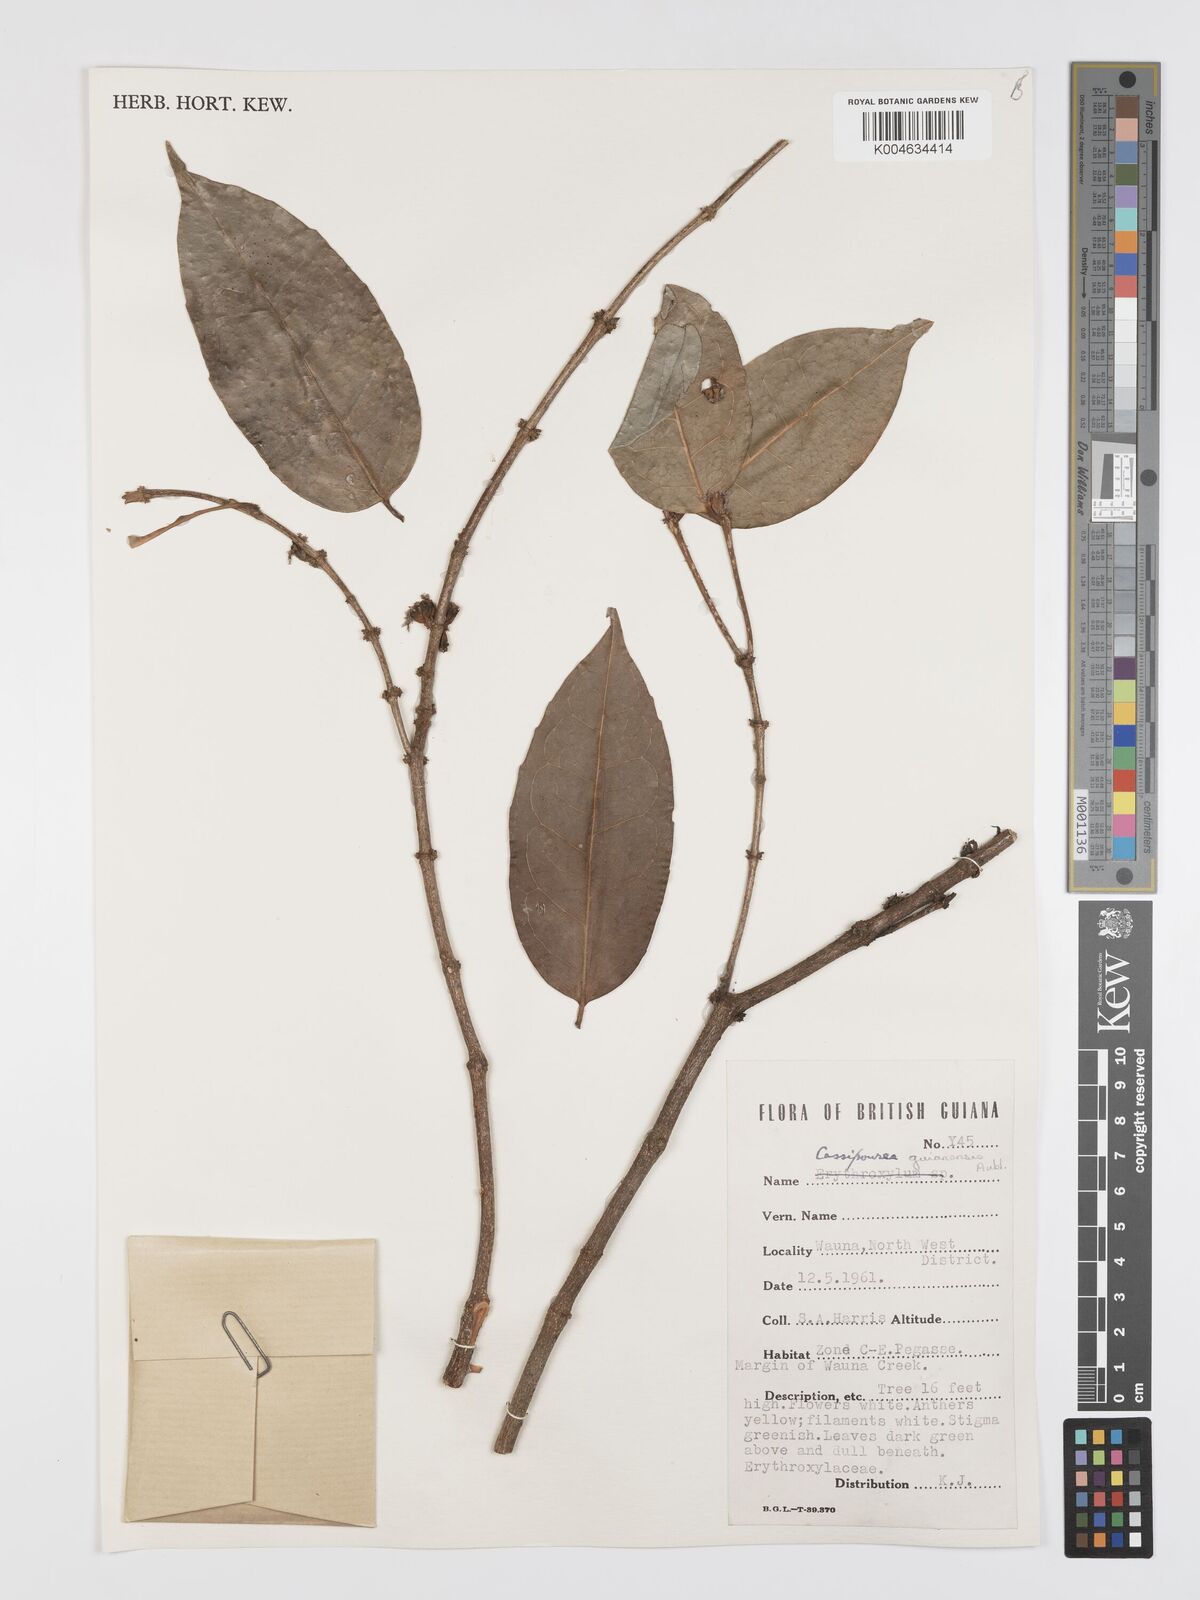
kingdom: Plantae
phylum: Tracheophyta
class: Magnoliopsida
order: Malpighiales
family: Rhizophoraceae
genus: Cassipourea
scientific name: Cassipourea guianensis
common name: Bastard waterwood
